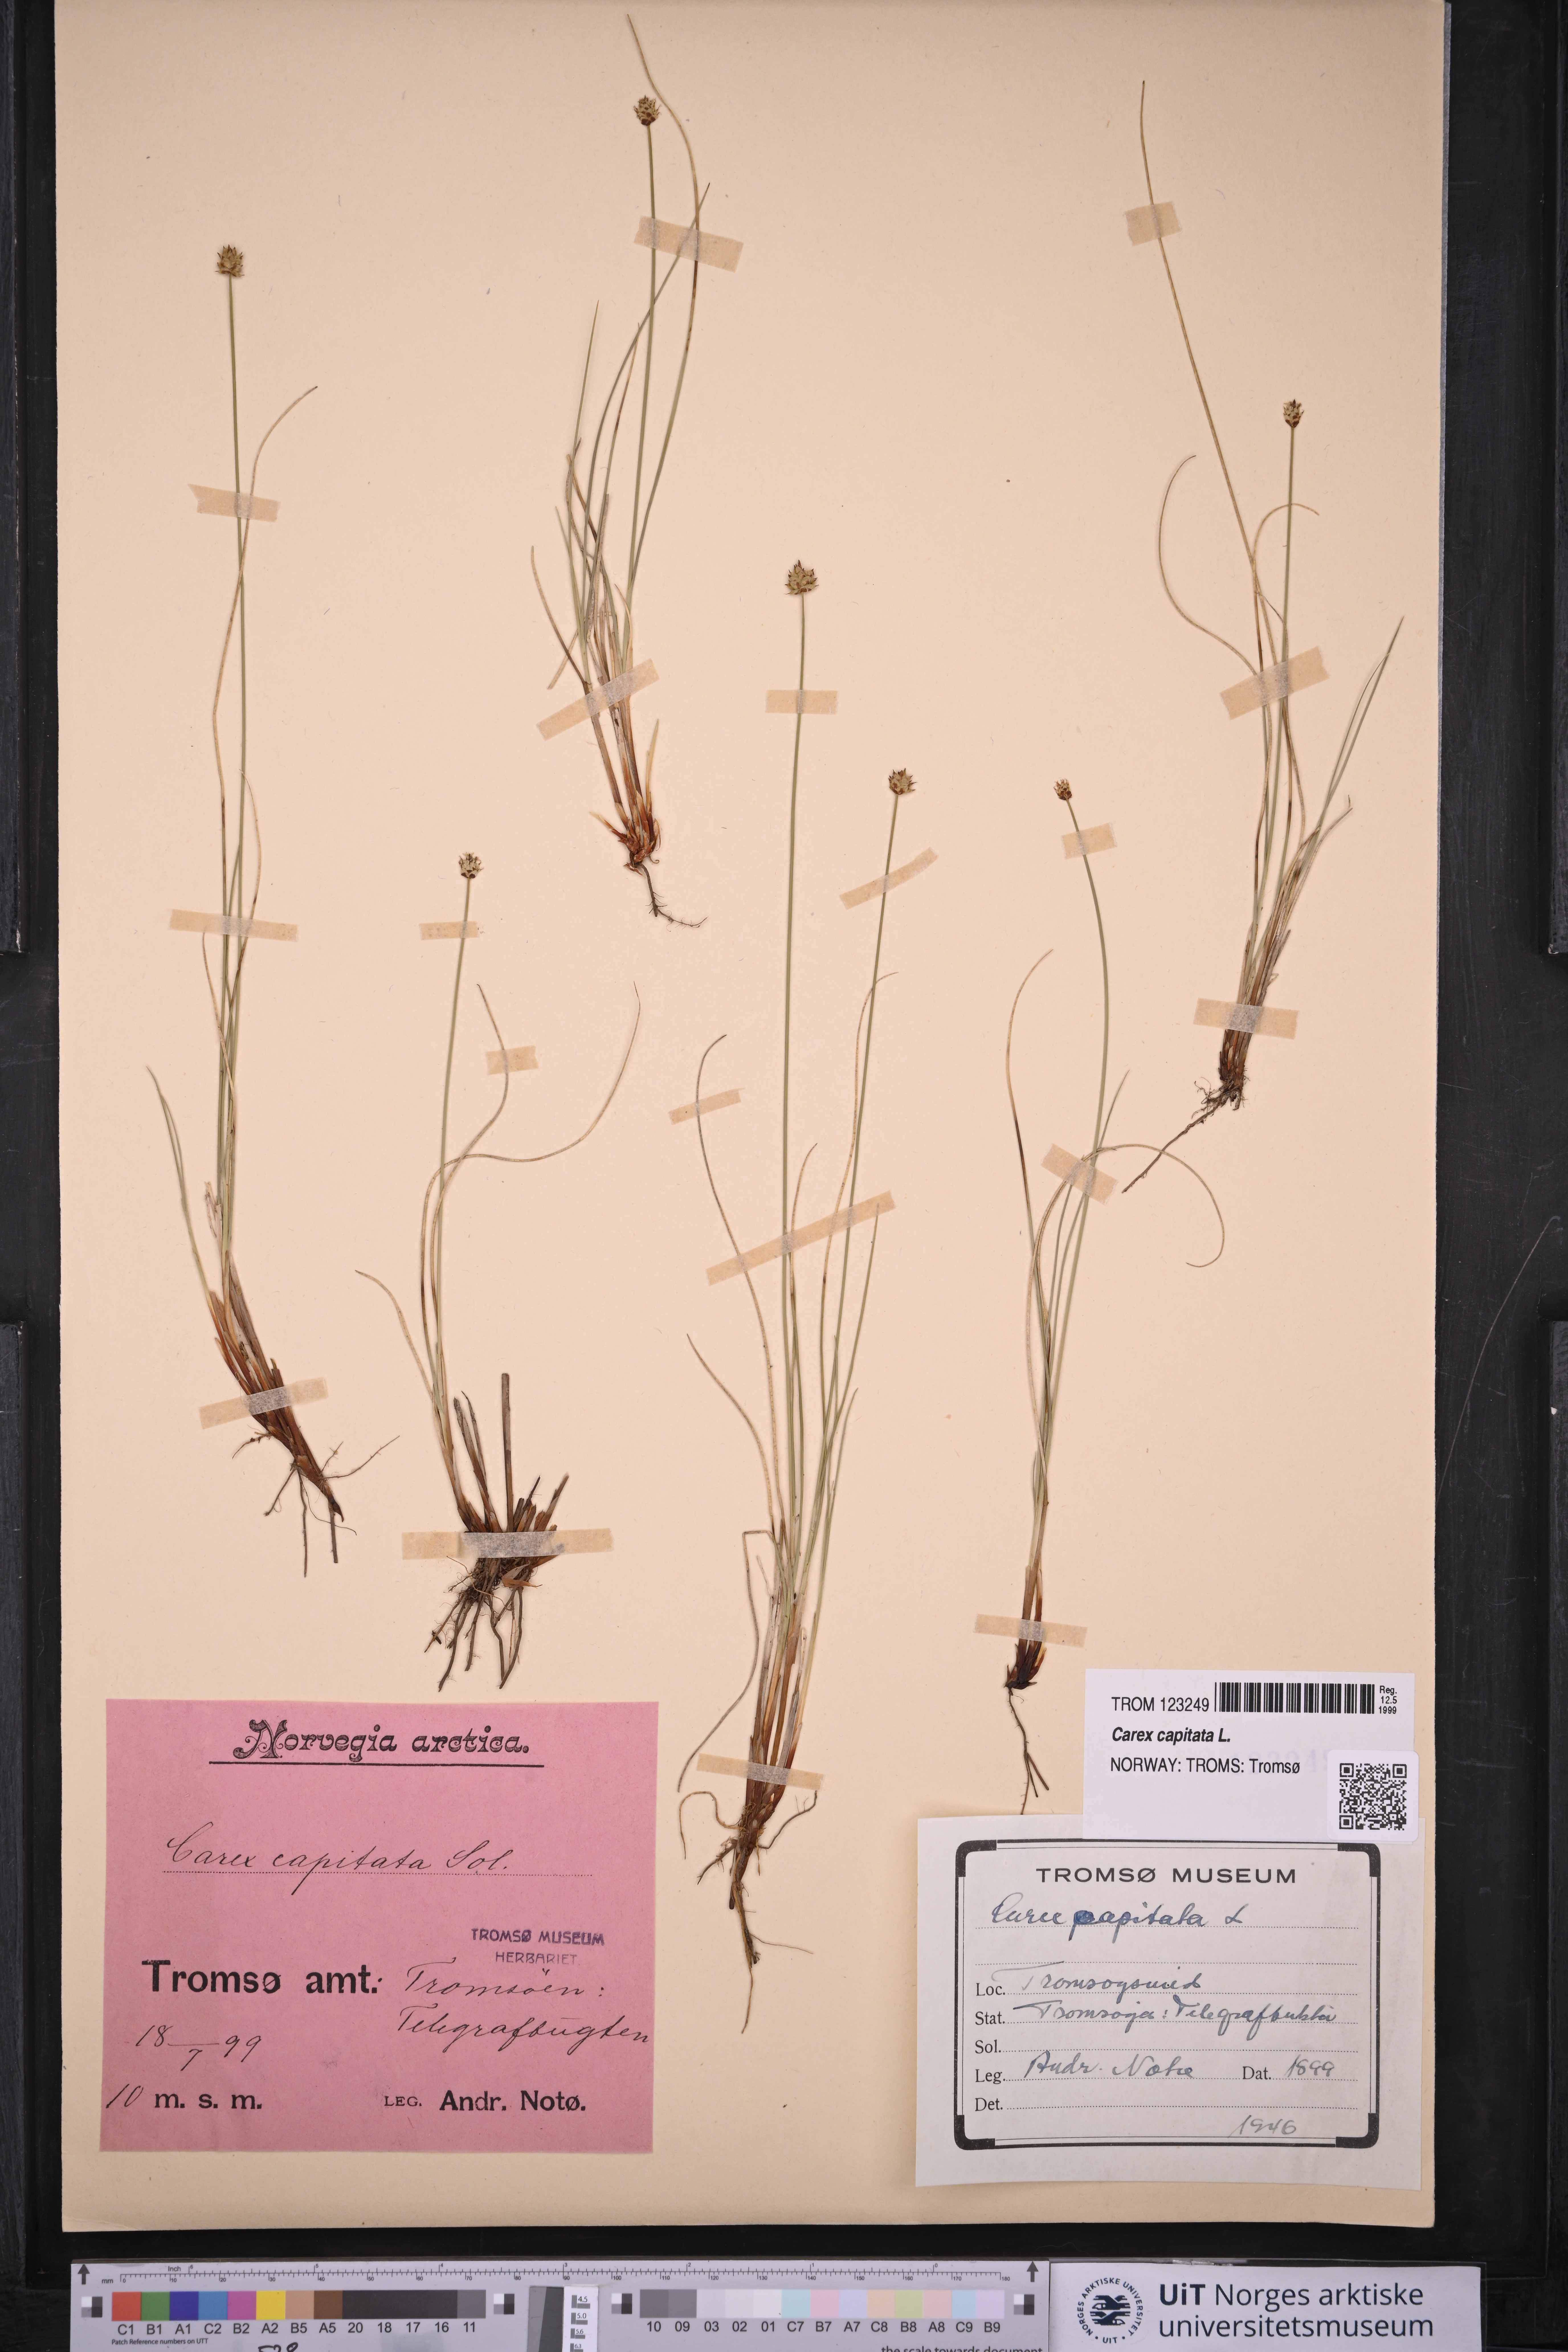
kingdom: Plantae
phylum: Tracheophyta
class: Liliopsida
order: Poales
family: Cyperaceae
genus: Carex
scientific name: Carex capitata
